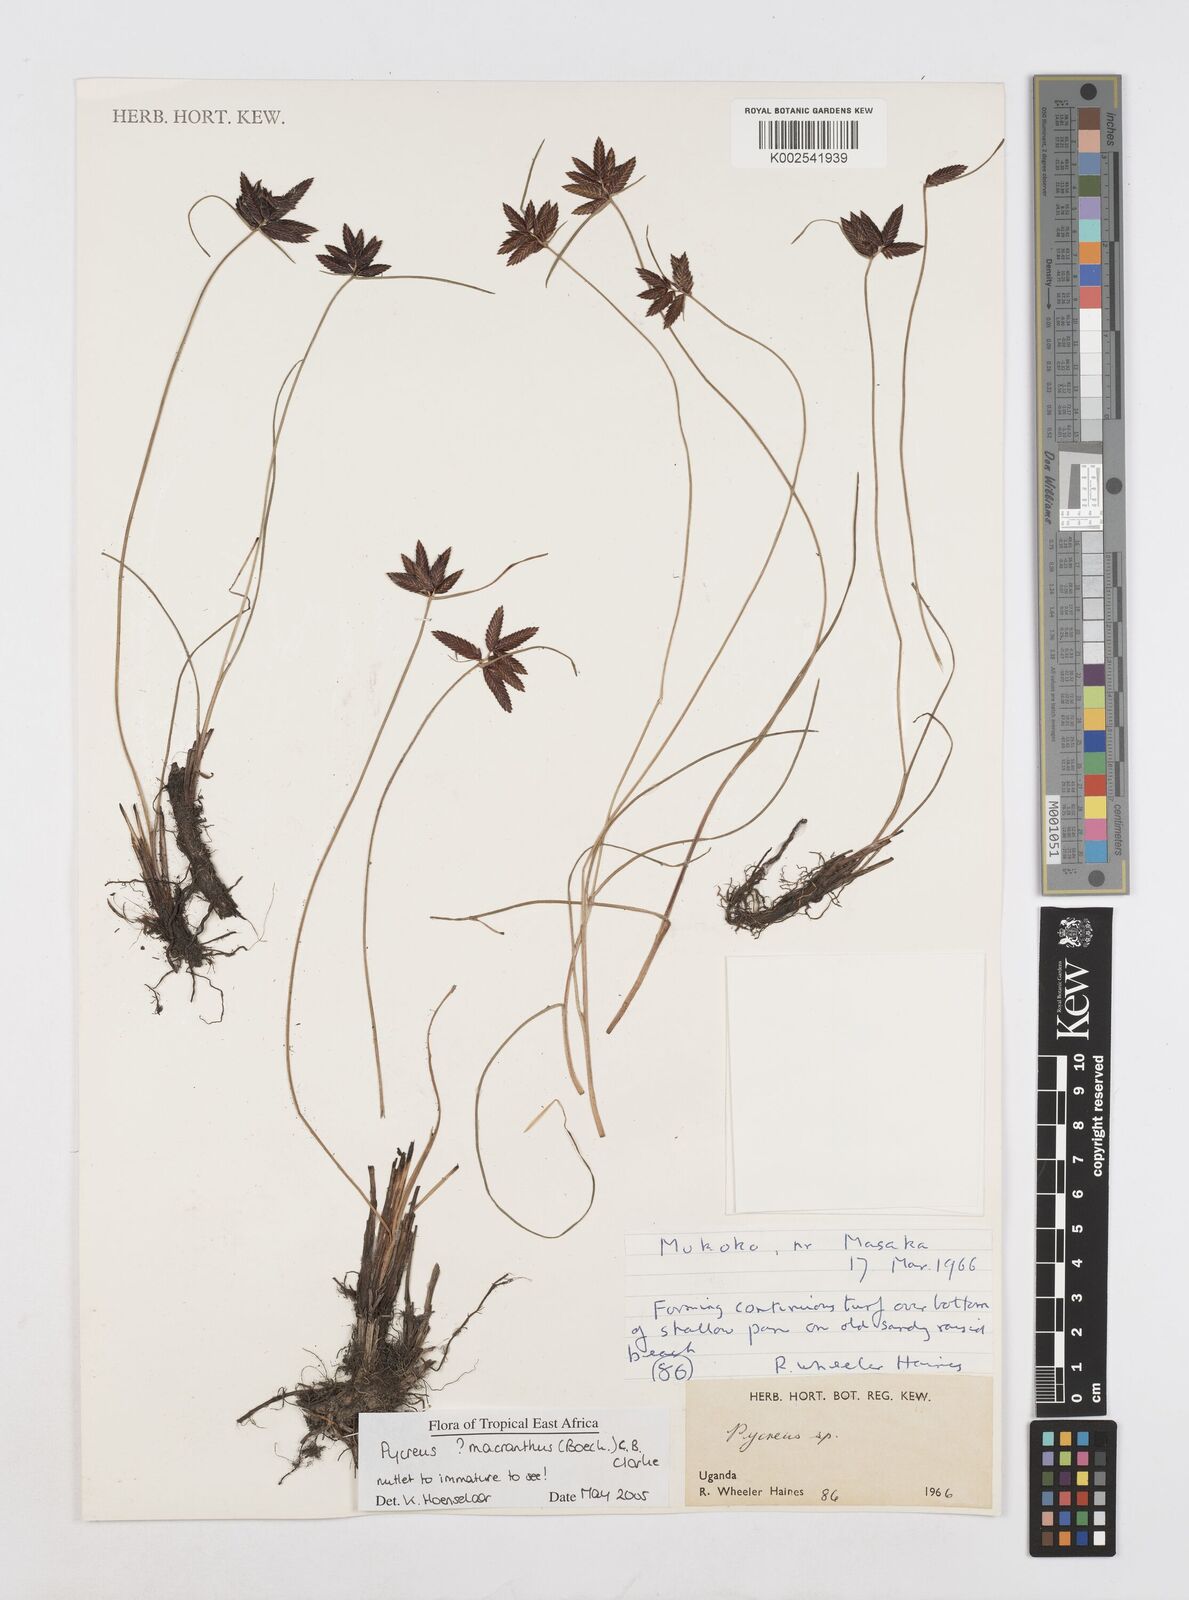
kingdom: Plantae
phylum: Tracheophyta
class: Liliopsida
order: Poales
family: Cyperaceae
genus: Cyperus
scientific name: Cyperus
